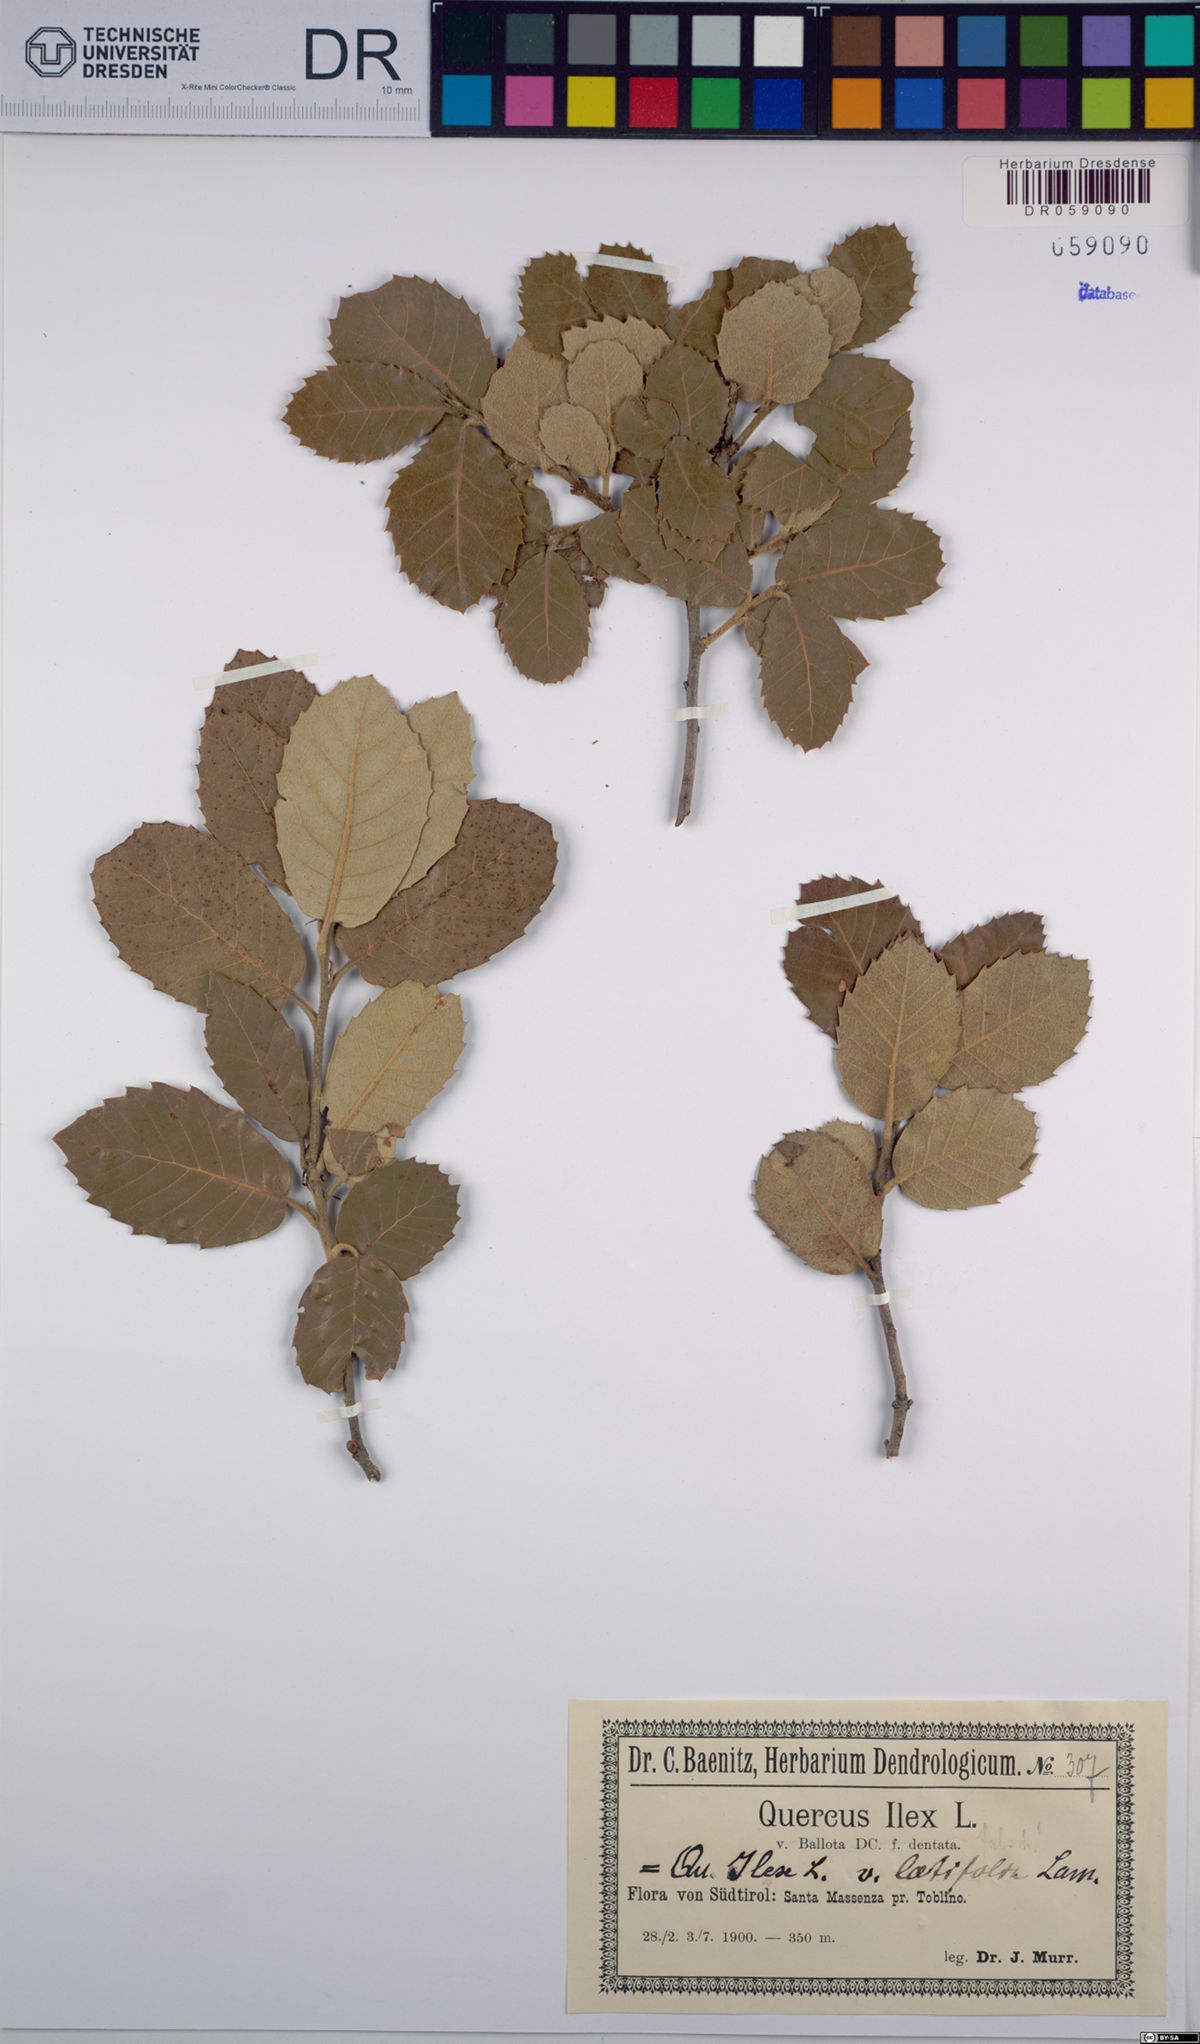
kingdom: Plantae
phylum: Tracheophyta
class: Magnoliopsida
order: Fagales
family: Fagaceae
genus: Quercus
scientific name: Quercus ilex
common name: Evergreen oak
